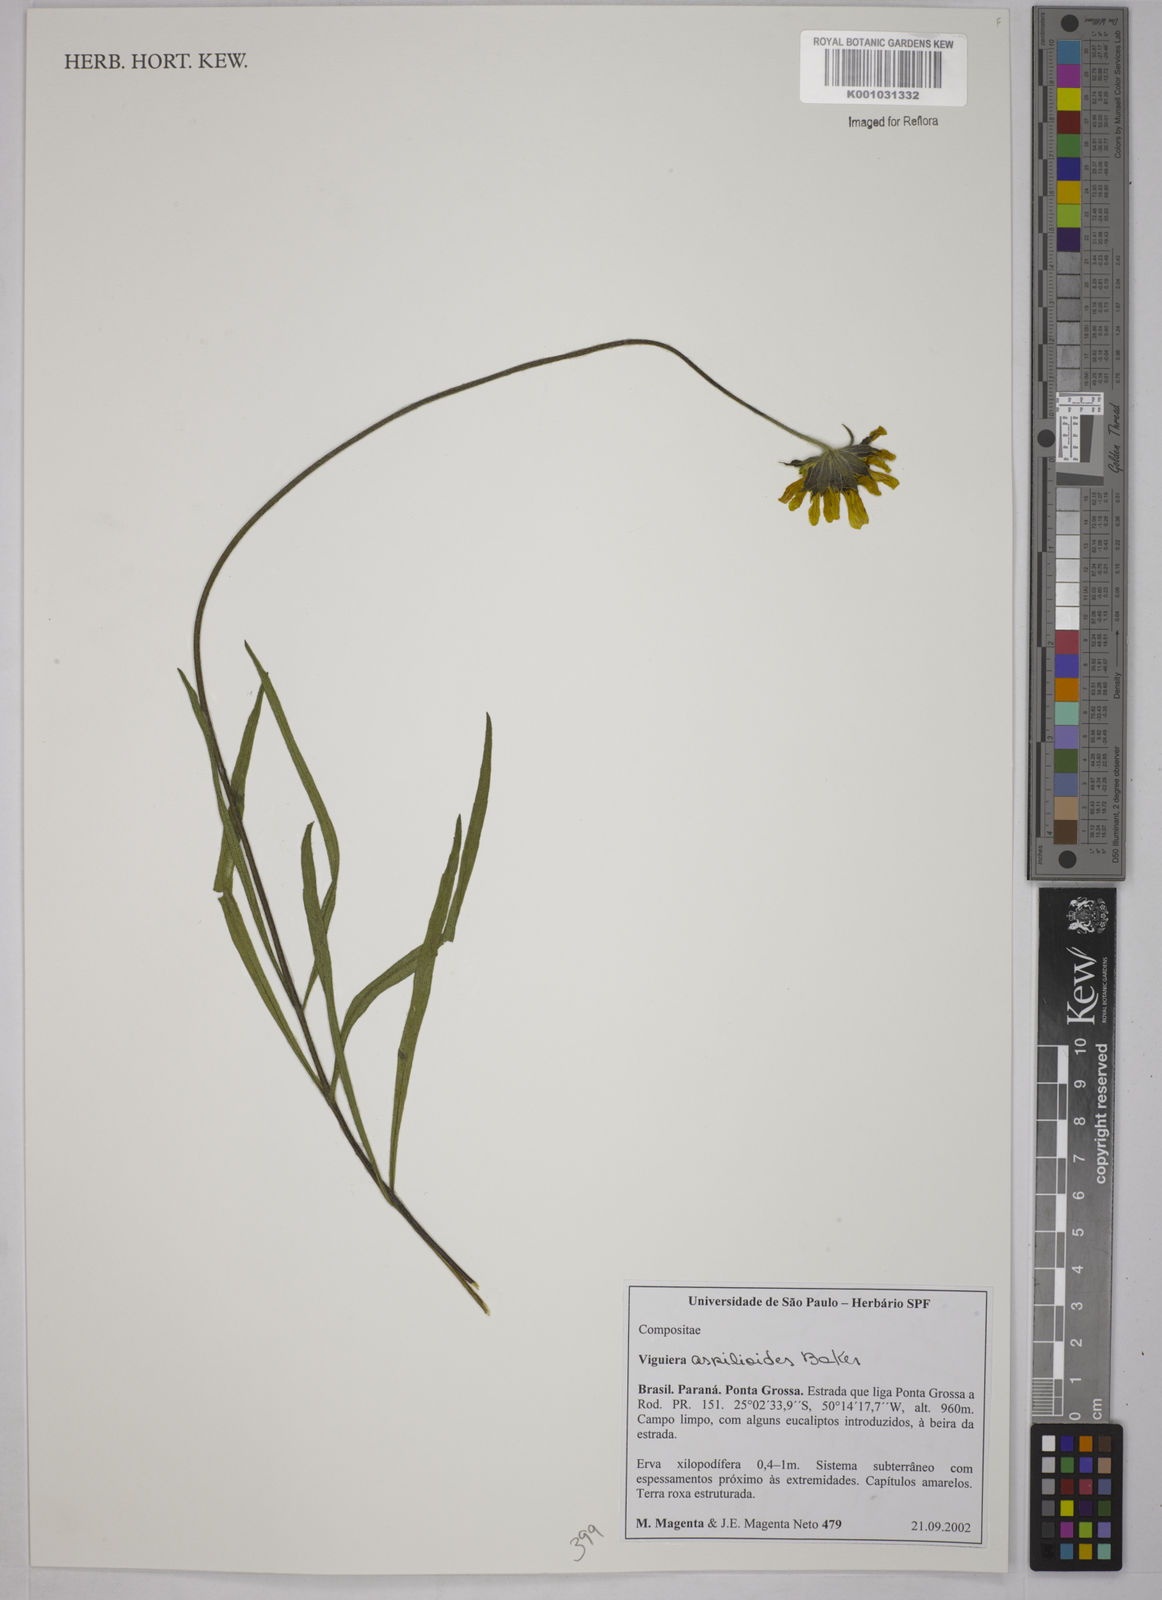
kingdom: Plantae
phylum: Tracheophyta
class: Magnoliopsida
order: Asterales
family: Asteraceae
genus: Viguiera
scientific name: Viguiera
